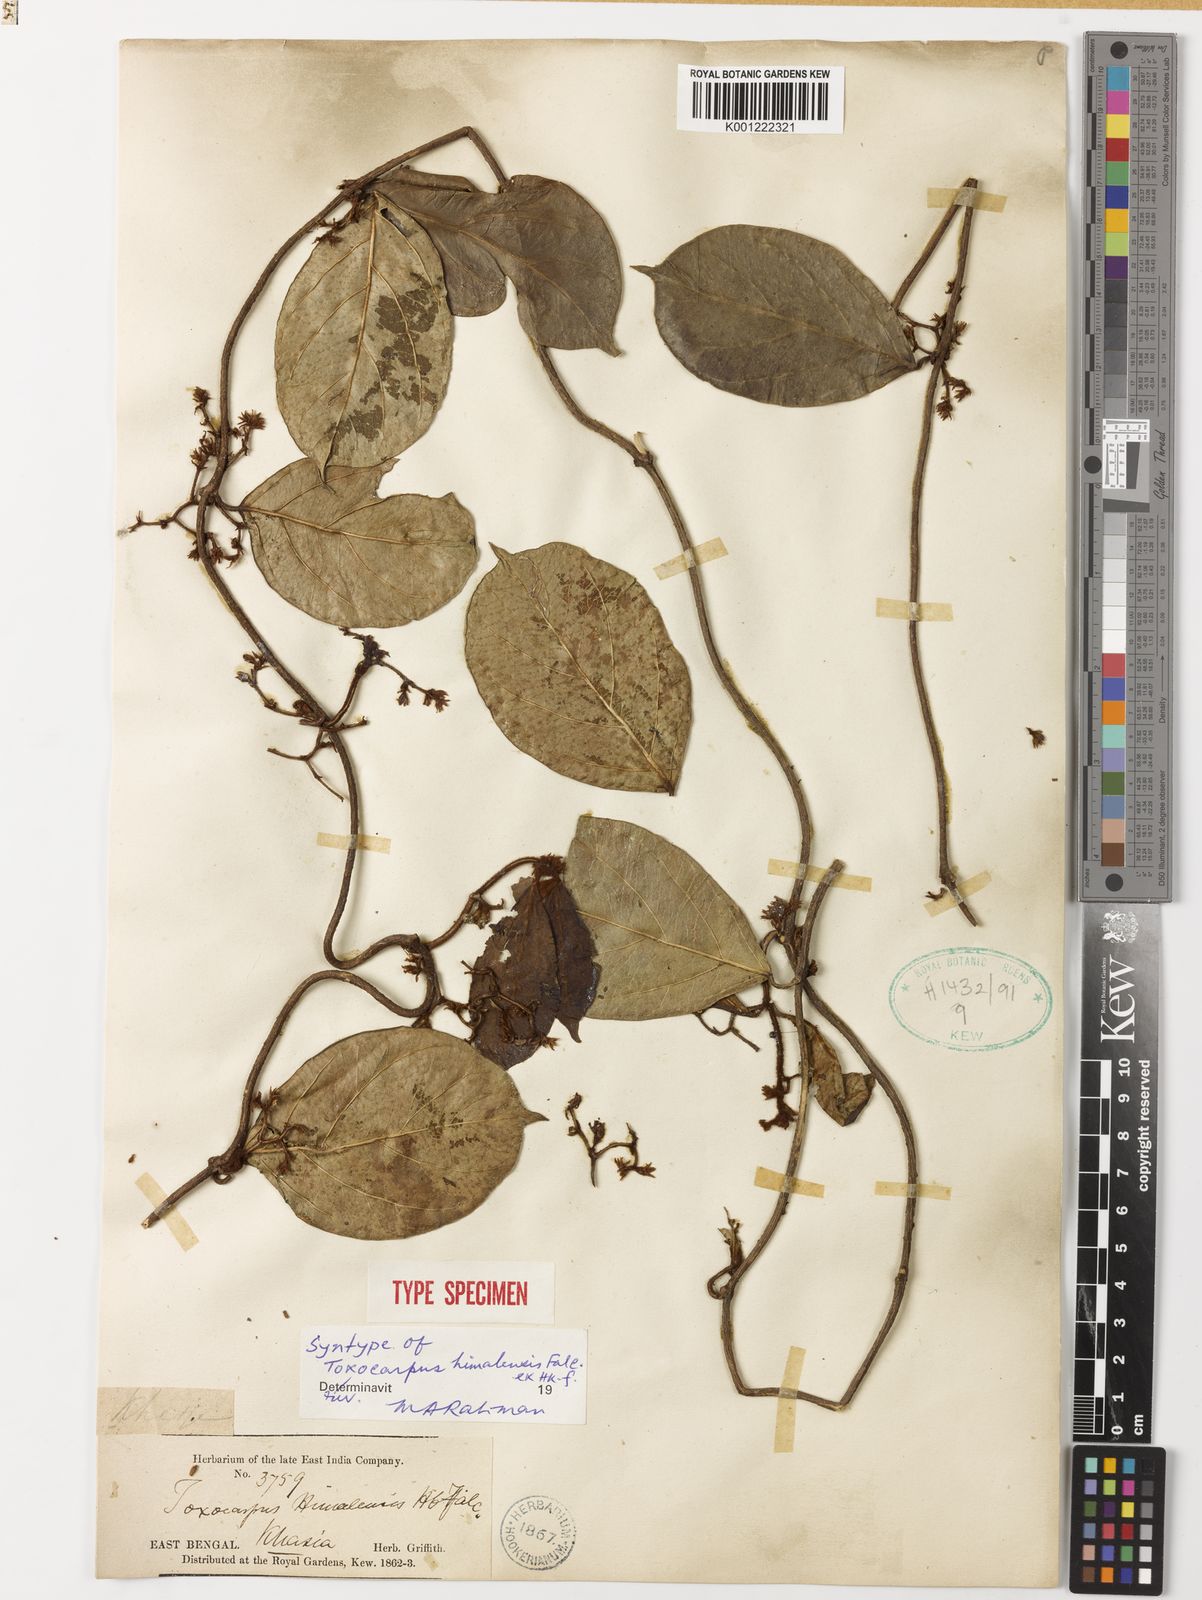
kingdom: Plantae
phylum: Tracheophyta
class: Magnoliopsida
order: Gentianales
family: Apocynaceae
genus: Toxocarpus
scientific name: Toxocarpus himalensis
